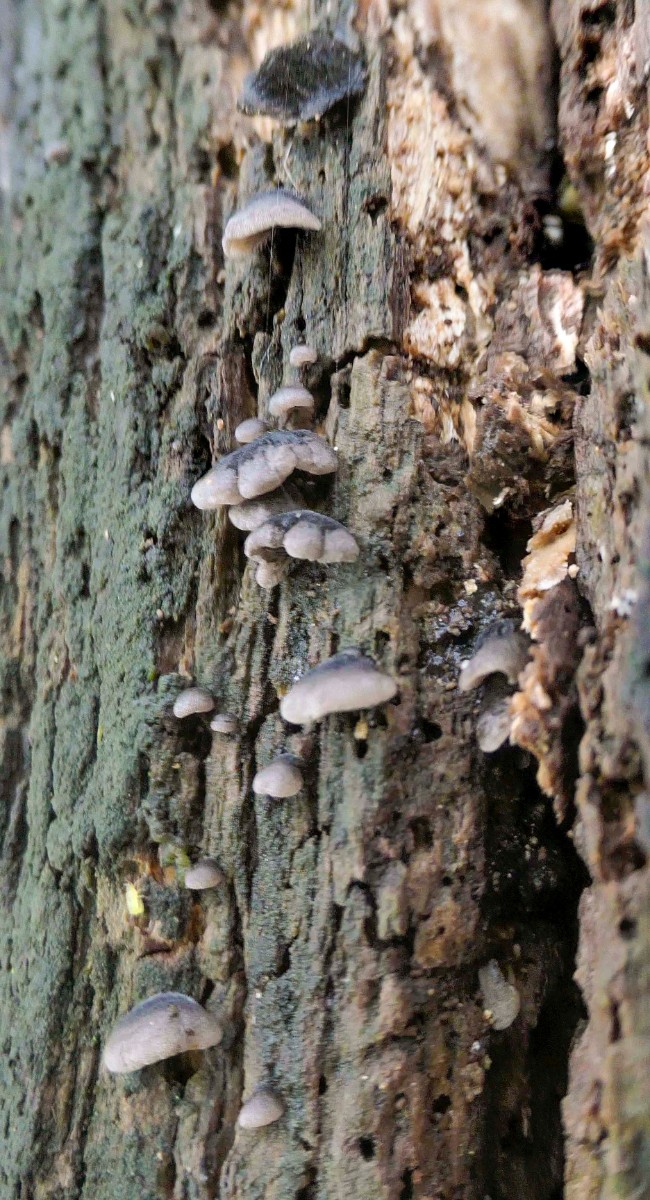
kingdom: Fungi
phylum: Basidiomycota
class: Agaricomycetes
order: Agaricales
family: Pleurotaceae
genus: Resupinatus
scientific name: Resupinatus trichotis
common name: mørkfiltet barkhat
